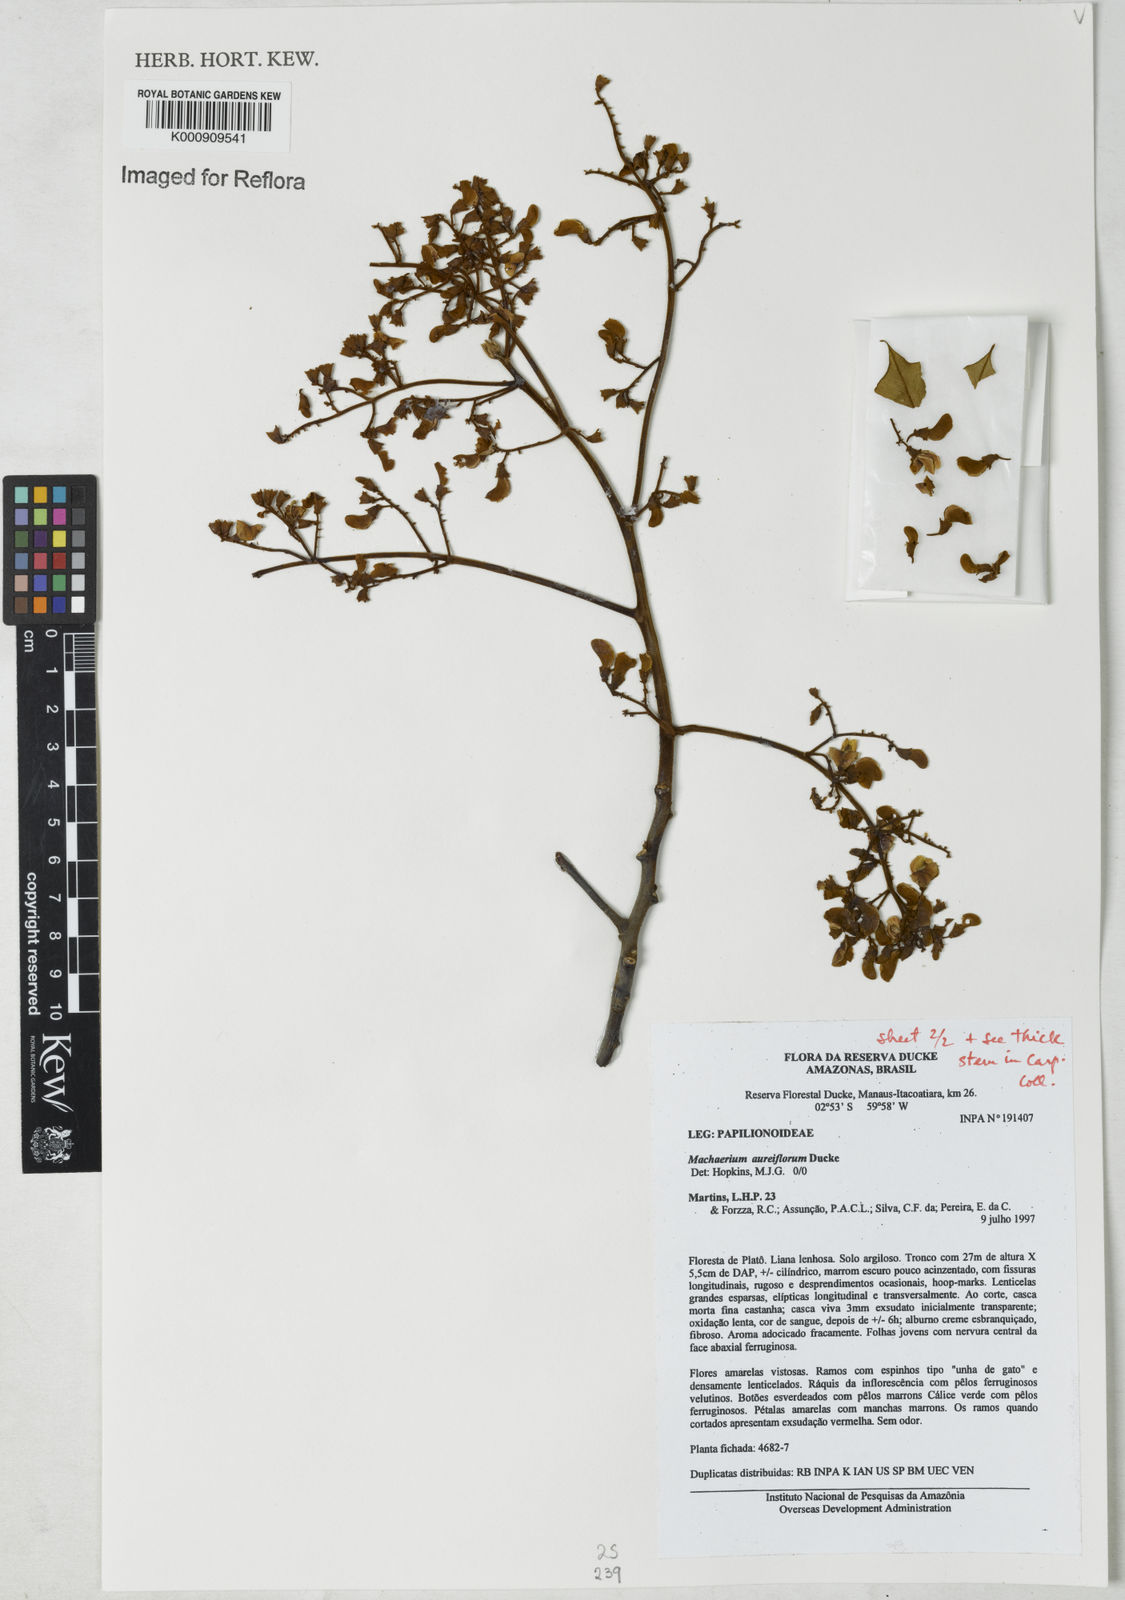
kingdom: Plantae
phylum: Tracheophyta
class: Magnoliopsida
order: Fabales
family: Fabaceae
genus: Machaerium
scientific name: Machaerium aureiflorum
